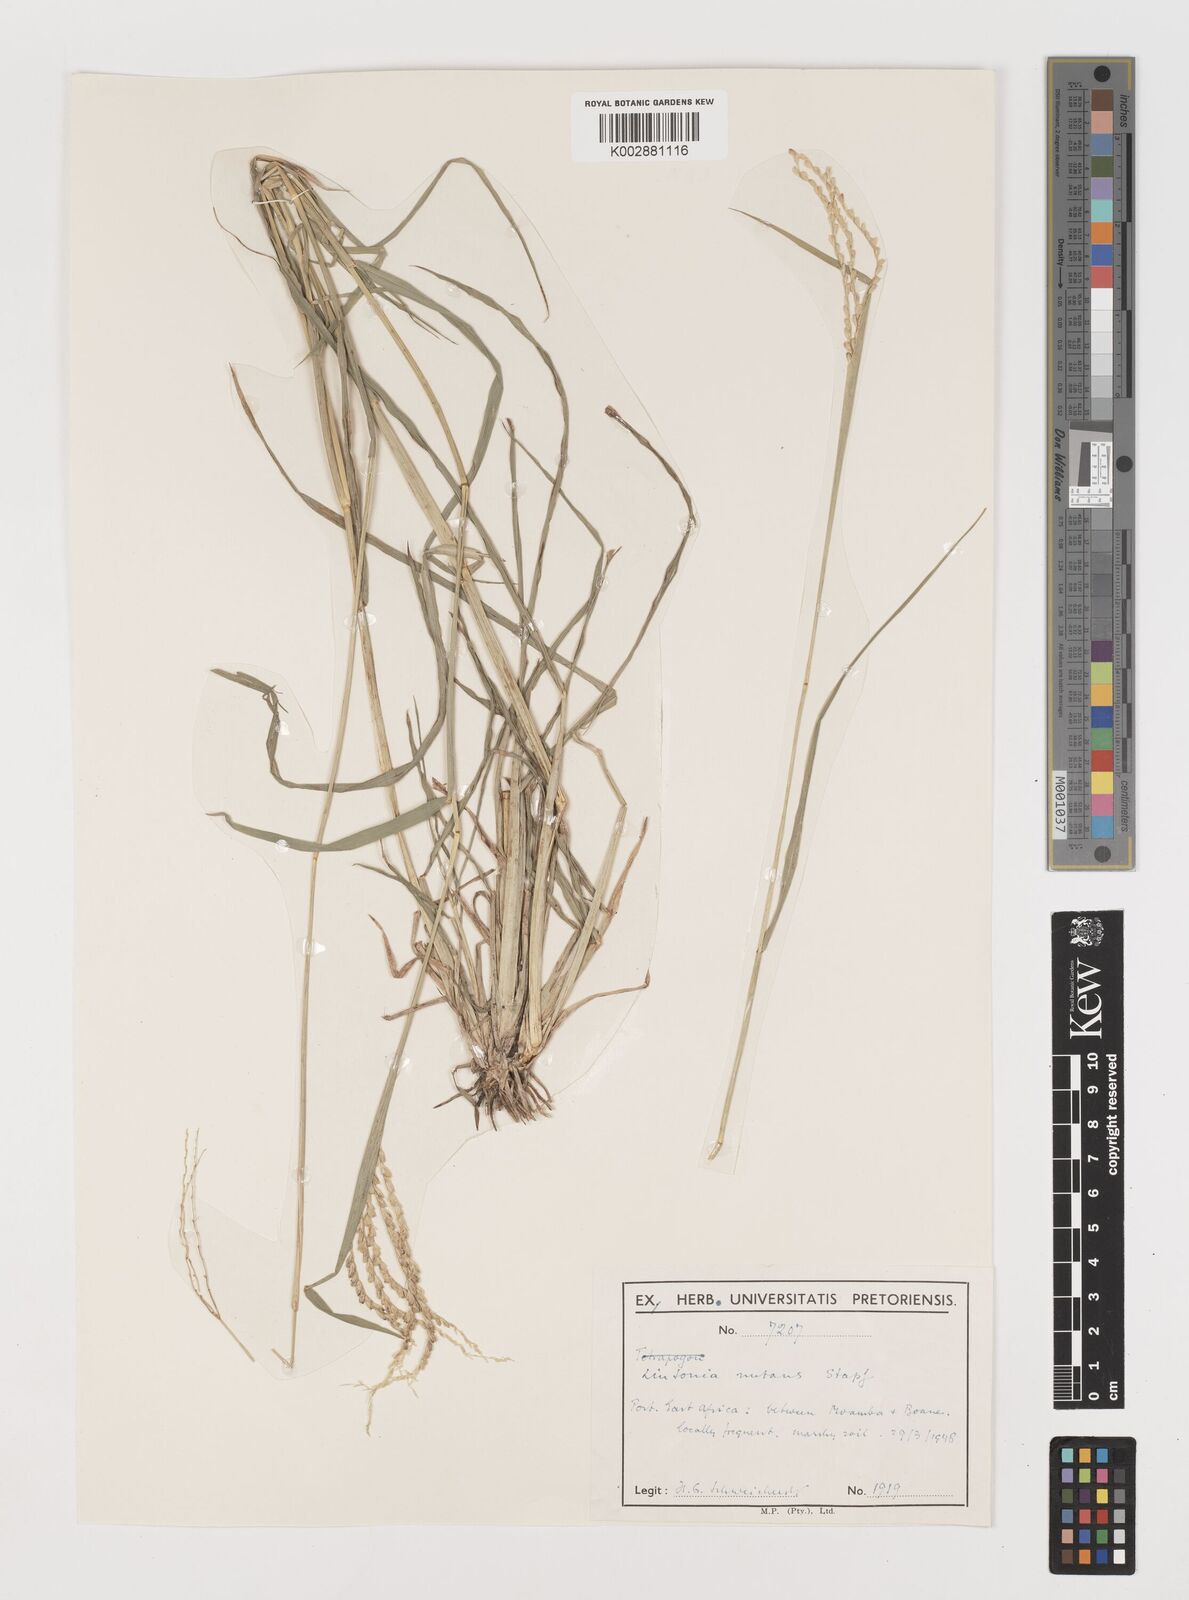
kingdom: Plantae
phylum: Tracheophyta
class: Liliopsida
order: Poales
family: Poaceae
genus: Chloris
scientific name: Chloris nutans
